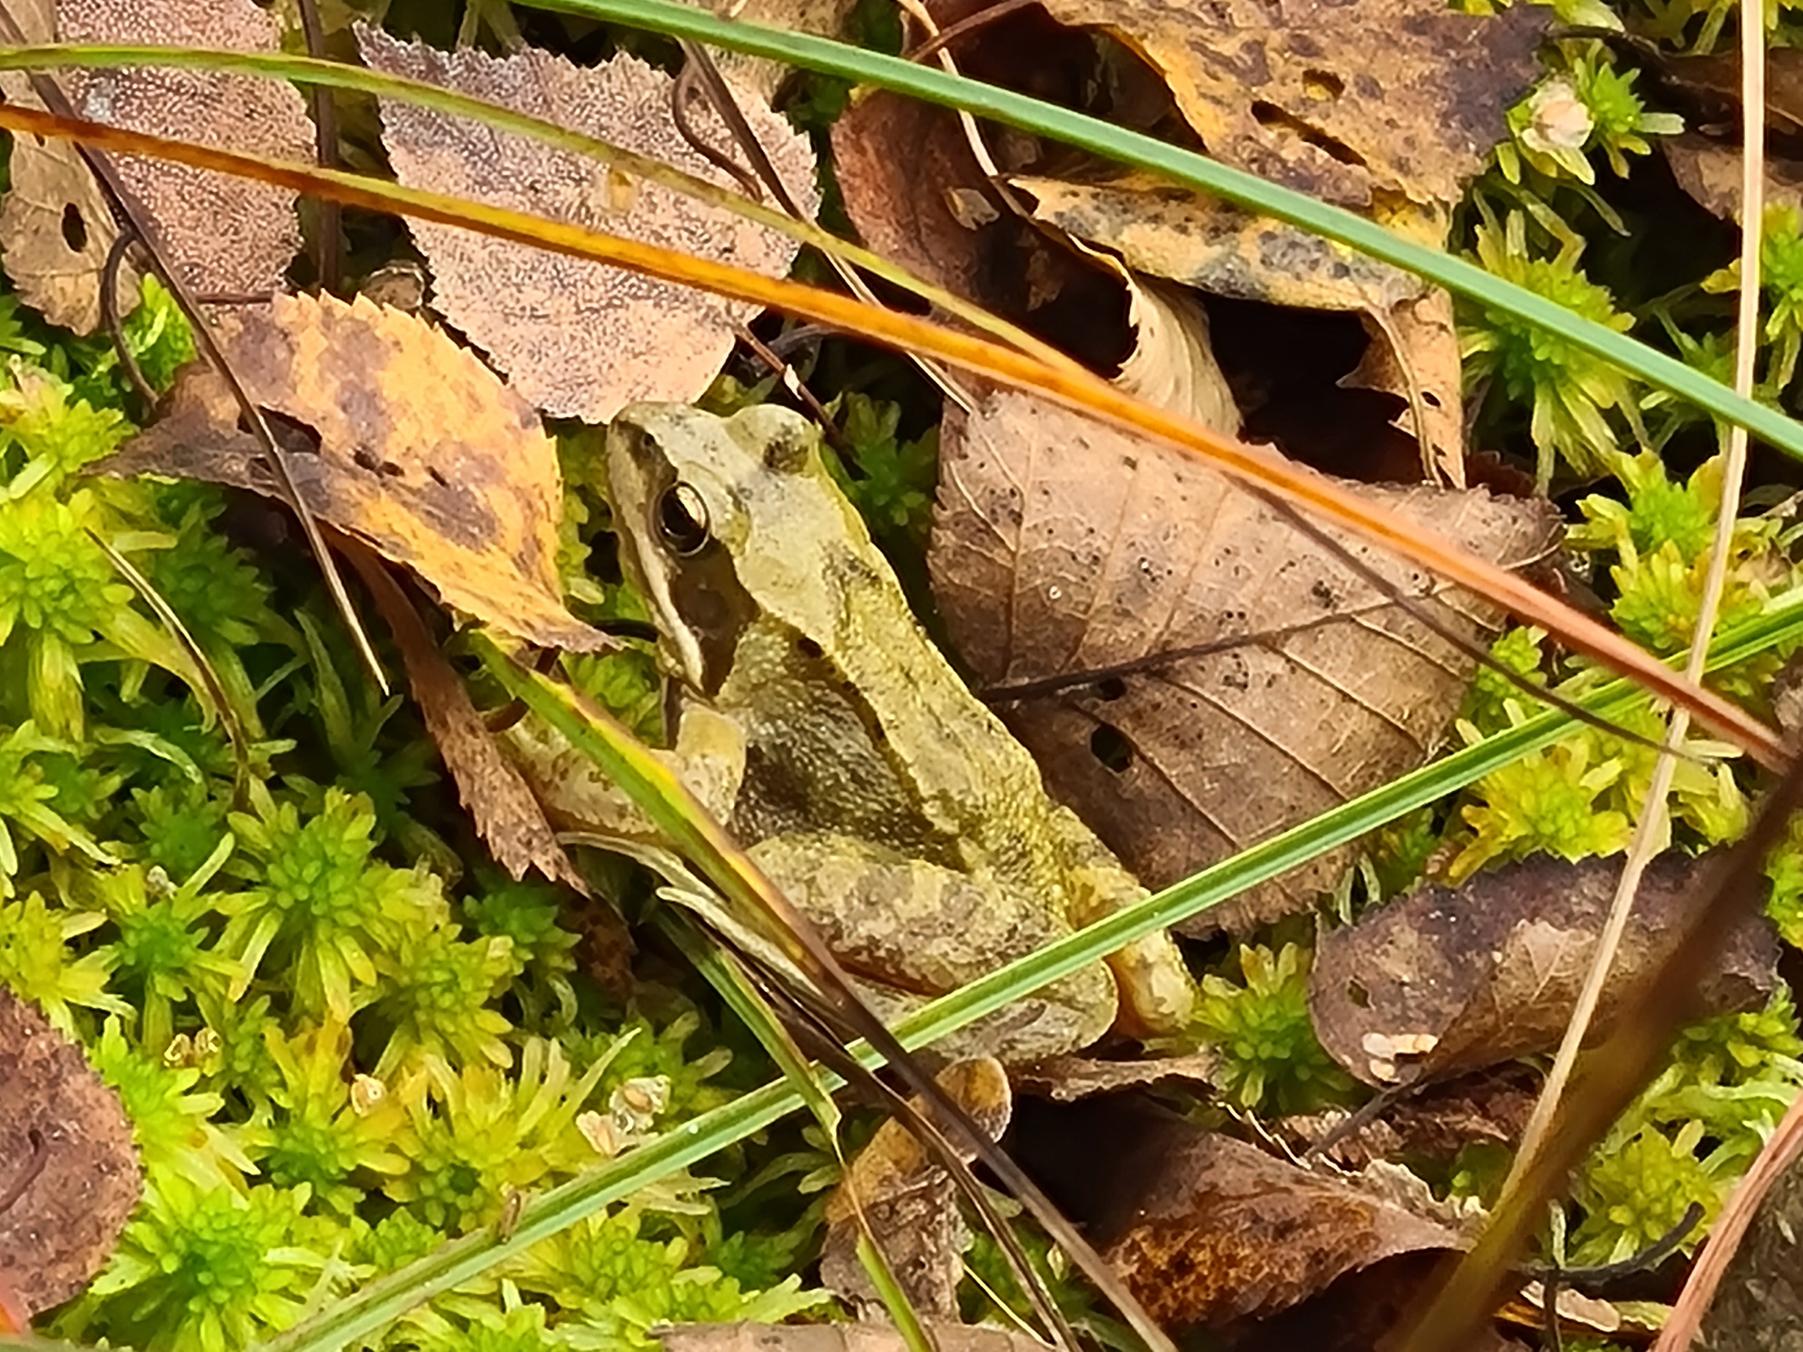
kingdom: Animalia
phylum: Chordata
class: Amphibia
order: Anura
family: Ranidae
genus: Rana
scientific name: Rana temporaria
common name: Butsnudet frø
